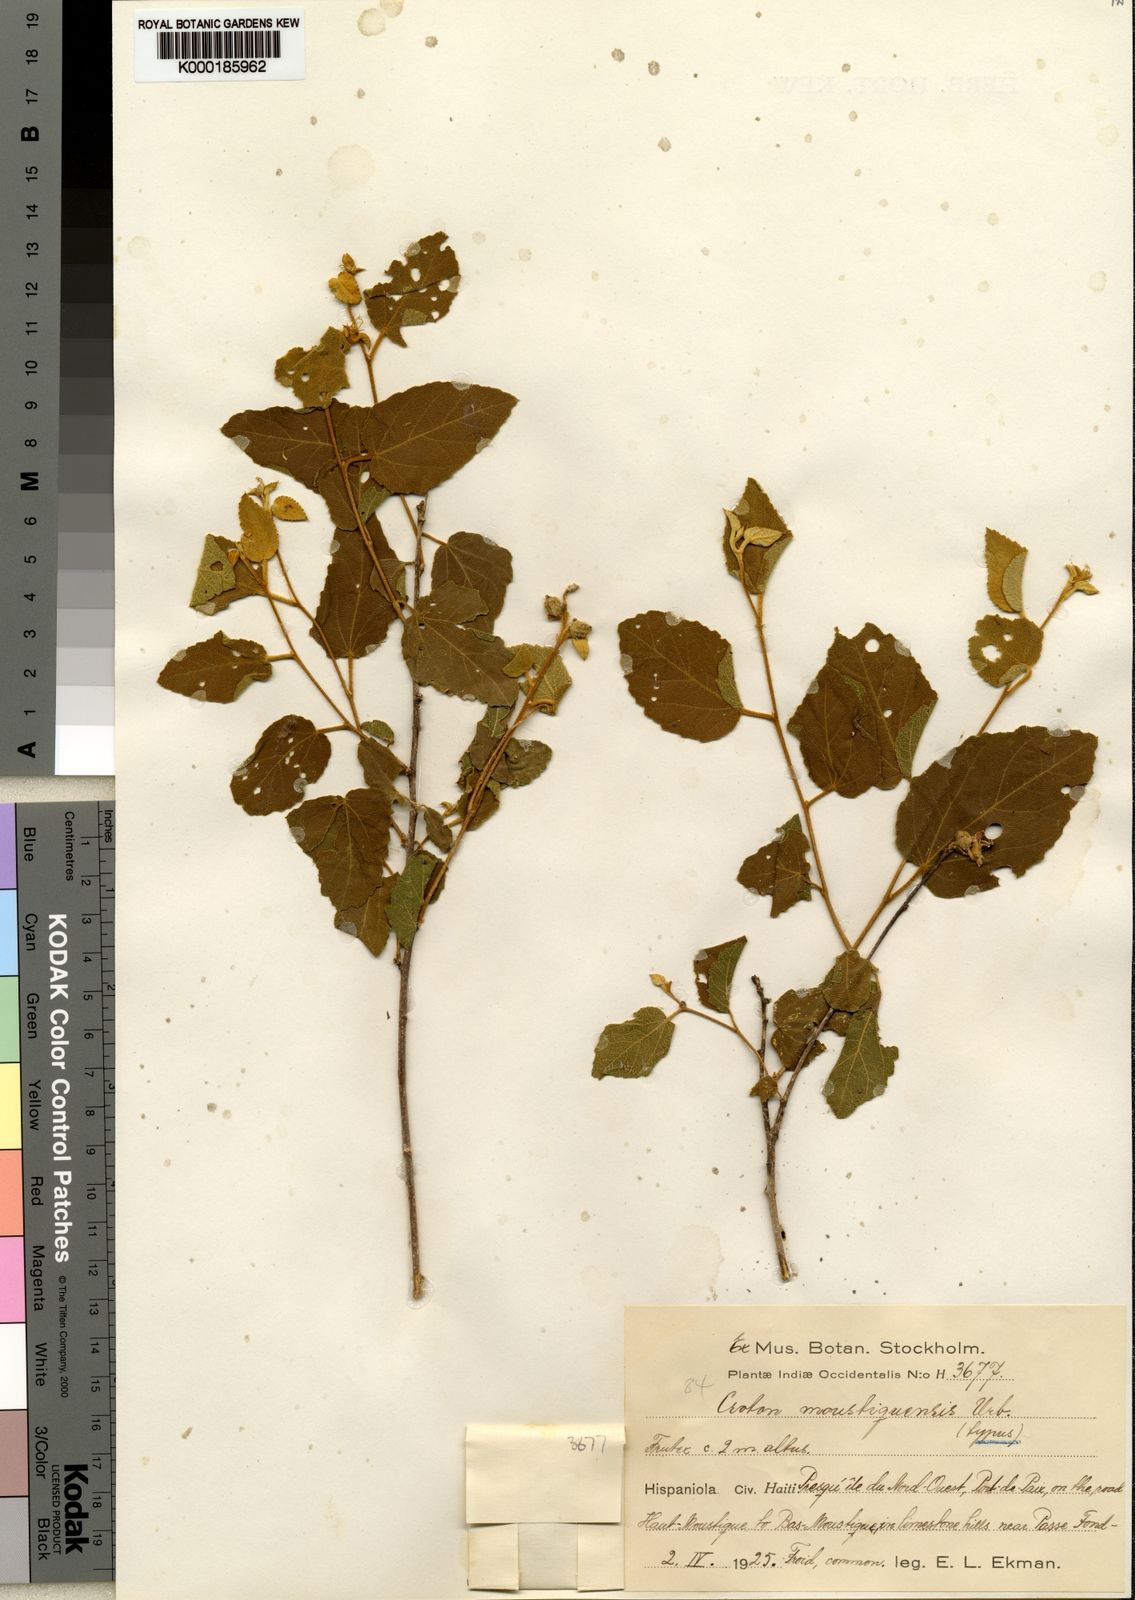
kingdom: Plantae
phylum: Tracheophyta
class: Magnoliopsida
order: Malpighiales
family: Euphorbiaceae
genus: Croton
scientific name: Croton moustiquensis
